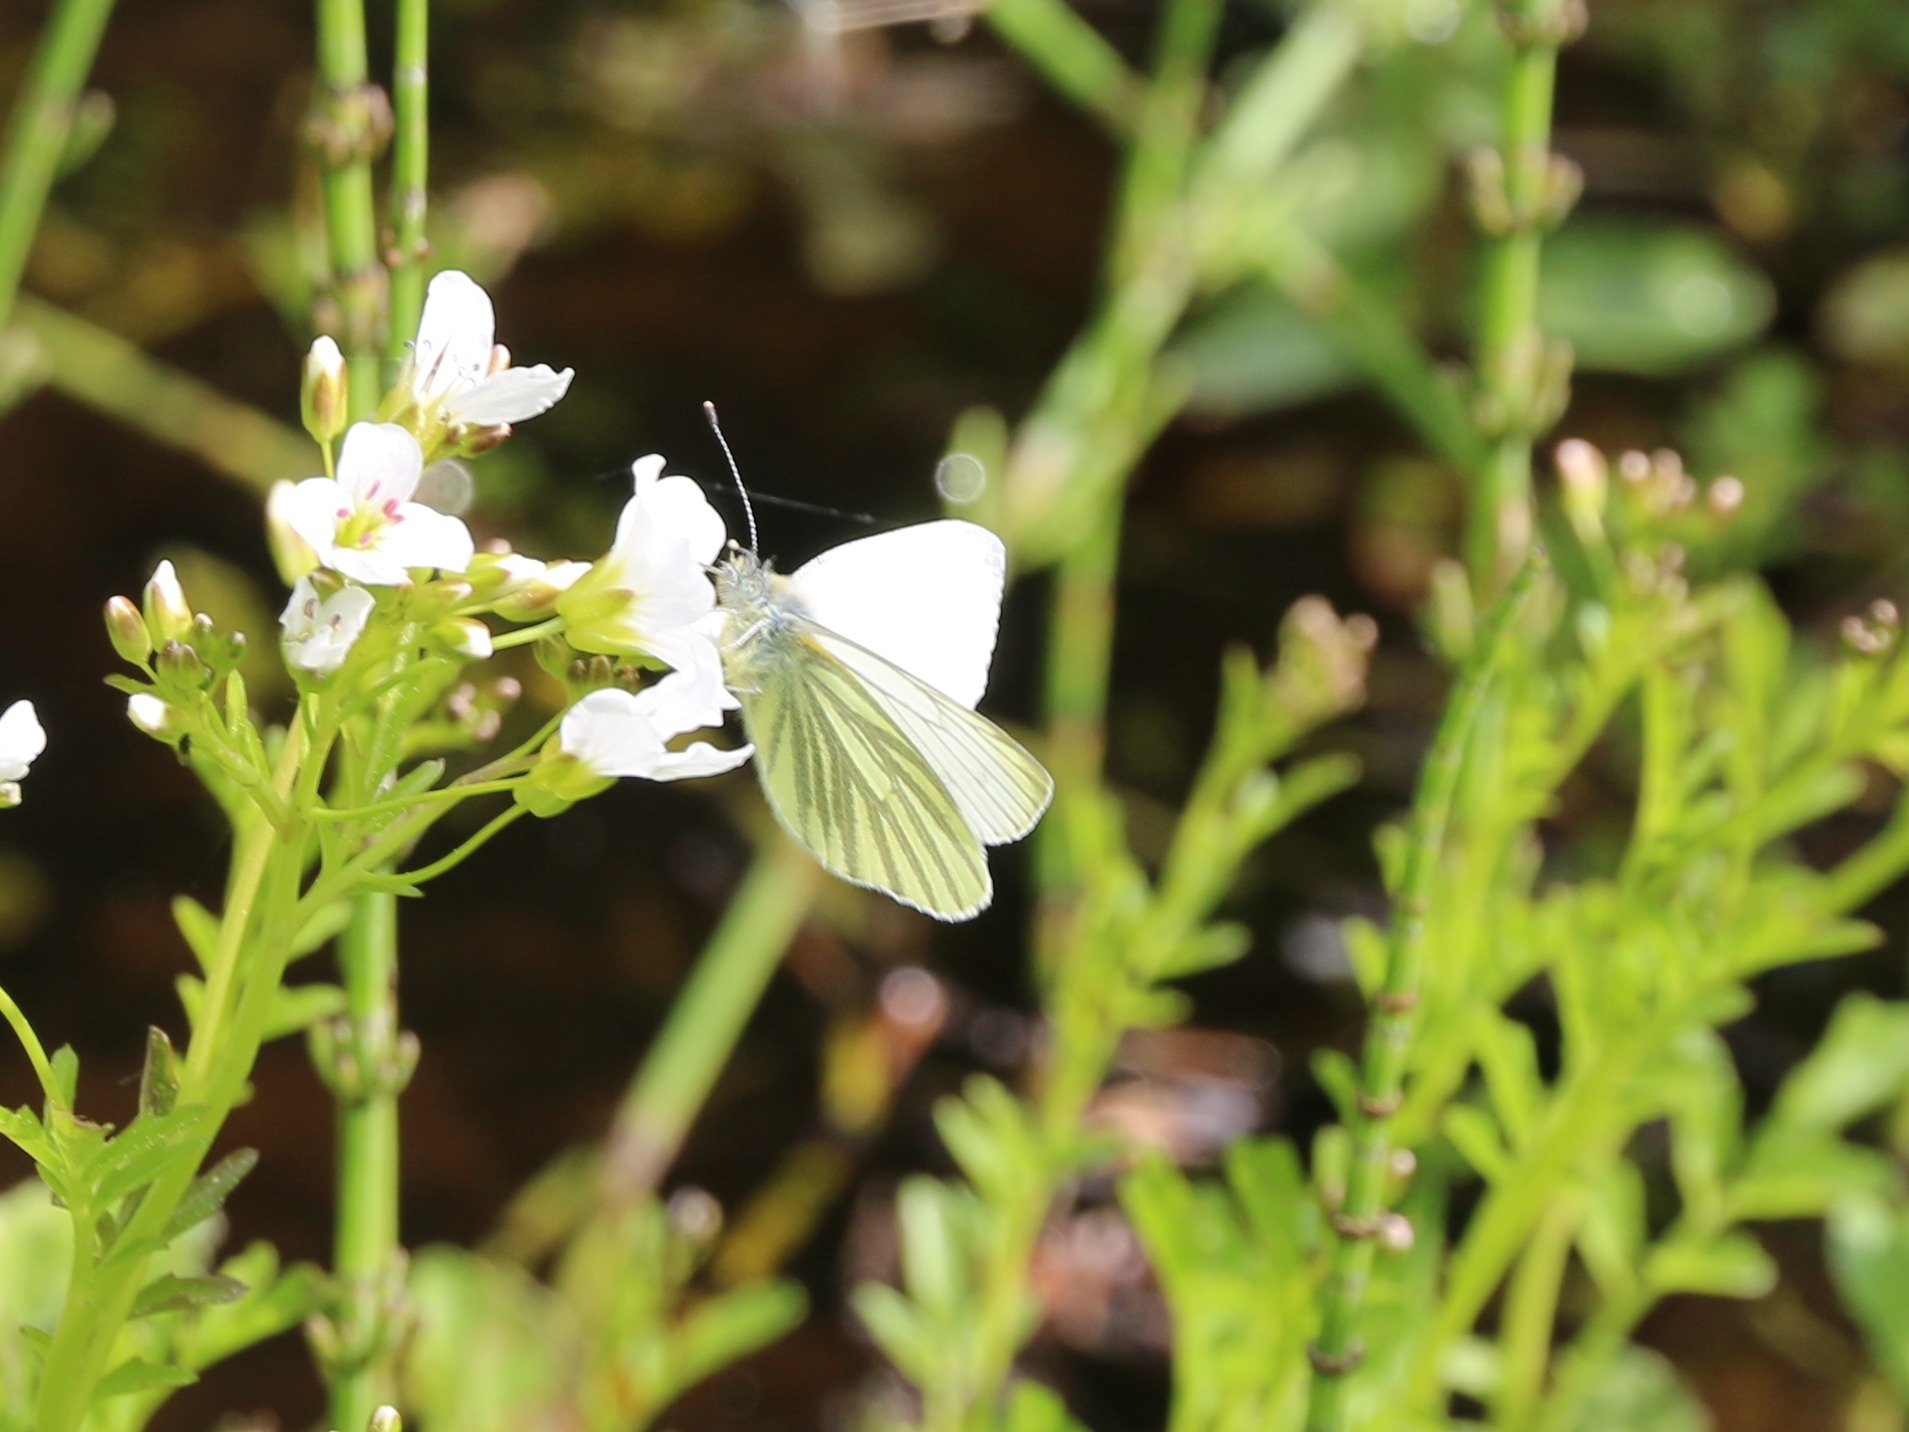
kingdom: Animalia
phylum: Arthropoda
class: Insecta
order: Lepidoptera
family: Pieridae
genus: Pieris
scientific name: Pieris napi
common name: Grønåret kålsommerfugl
